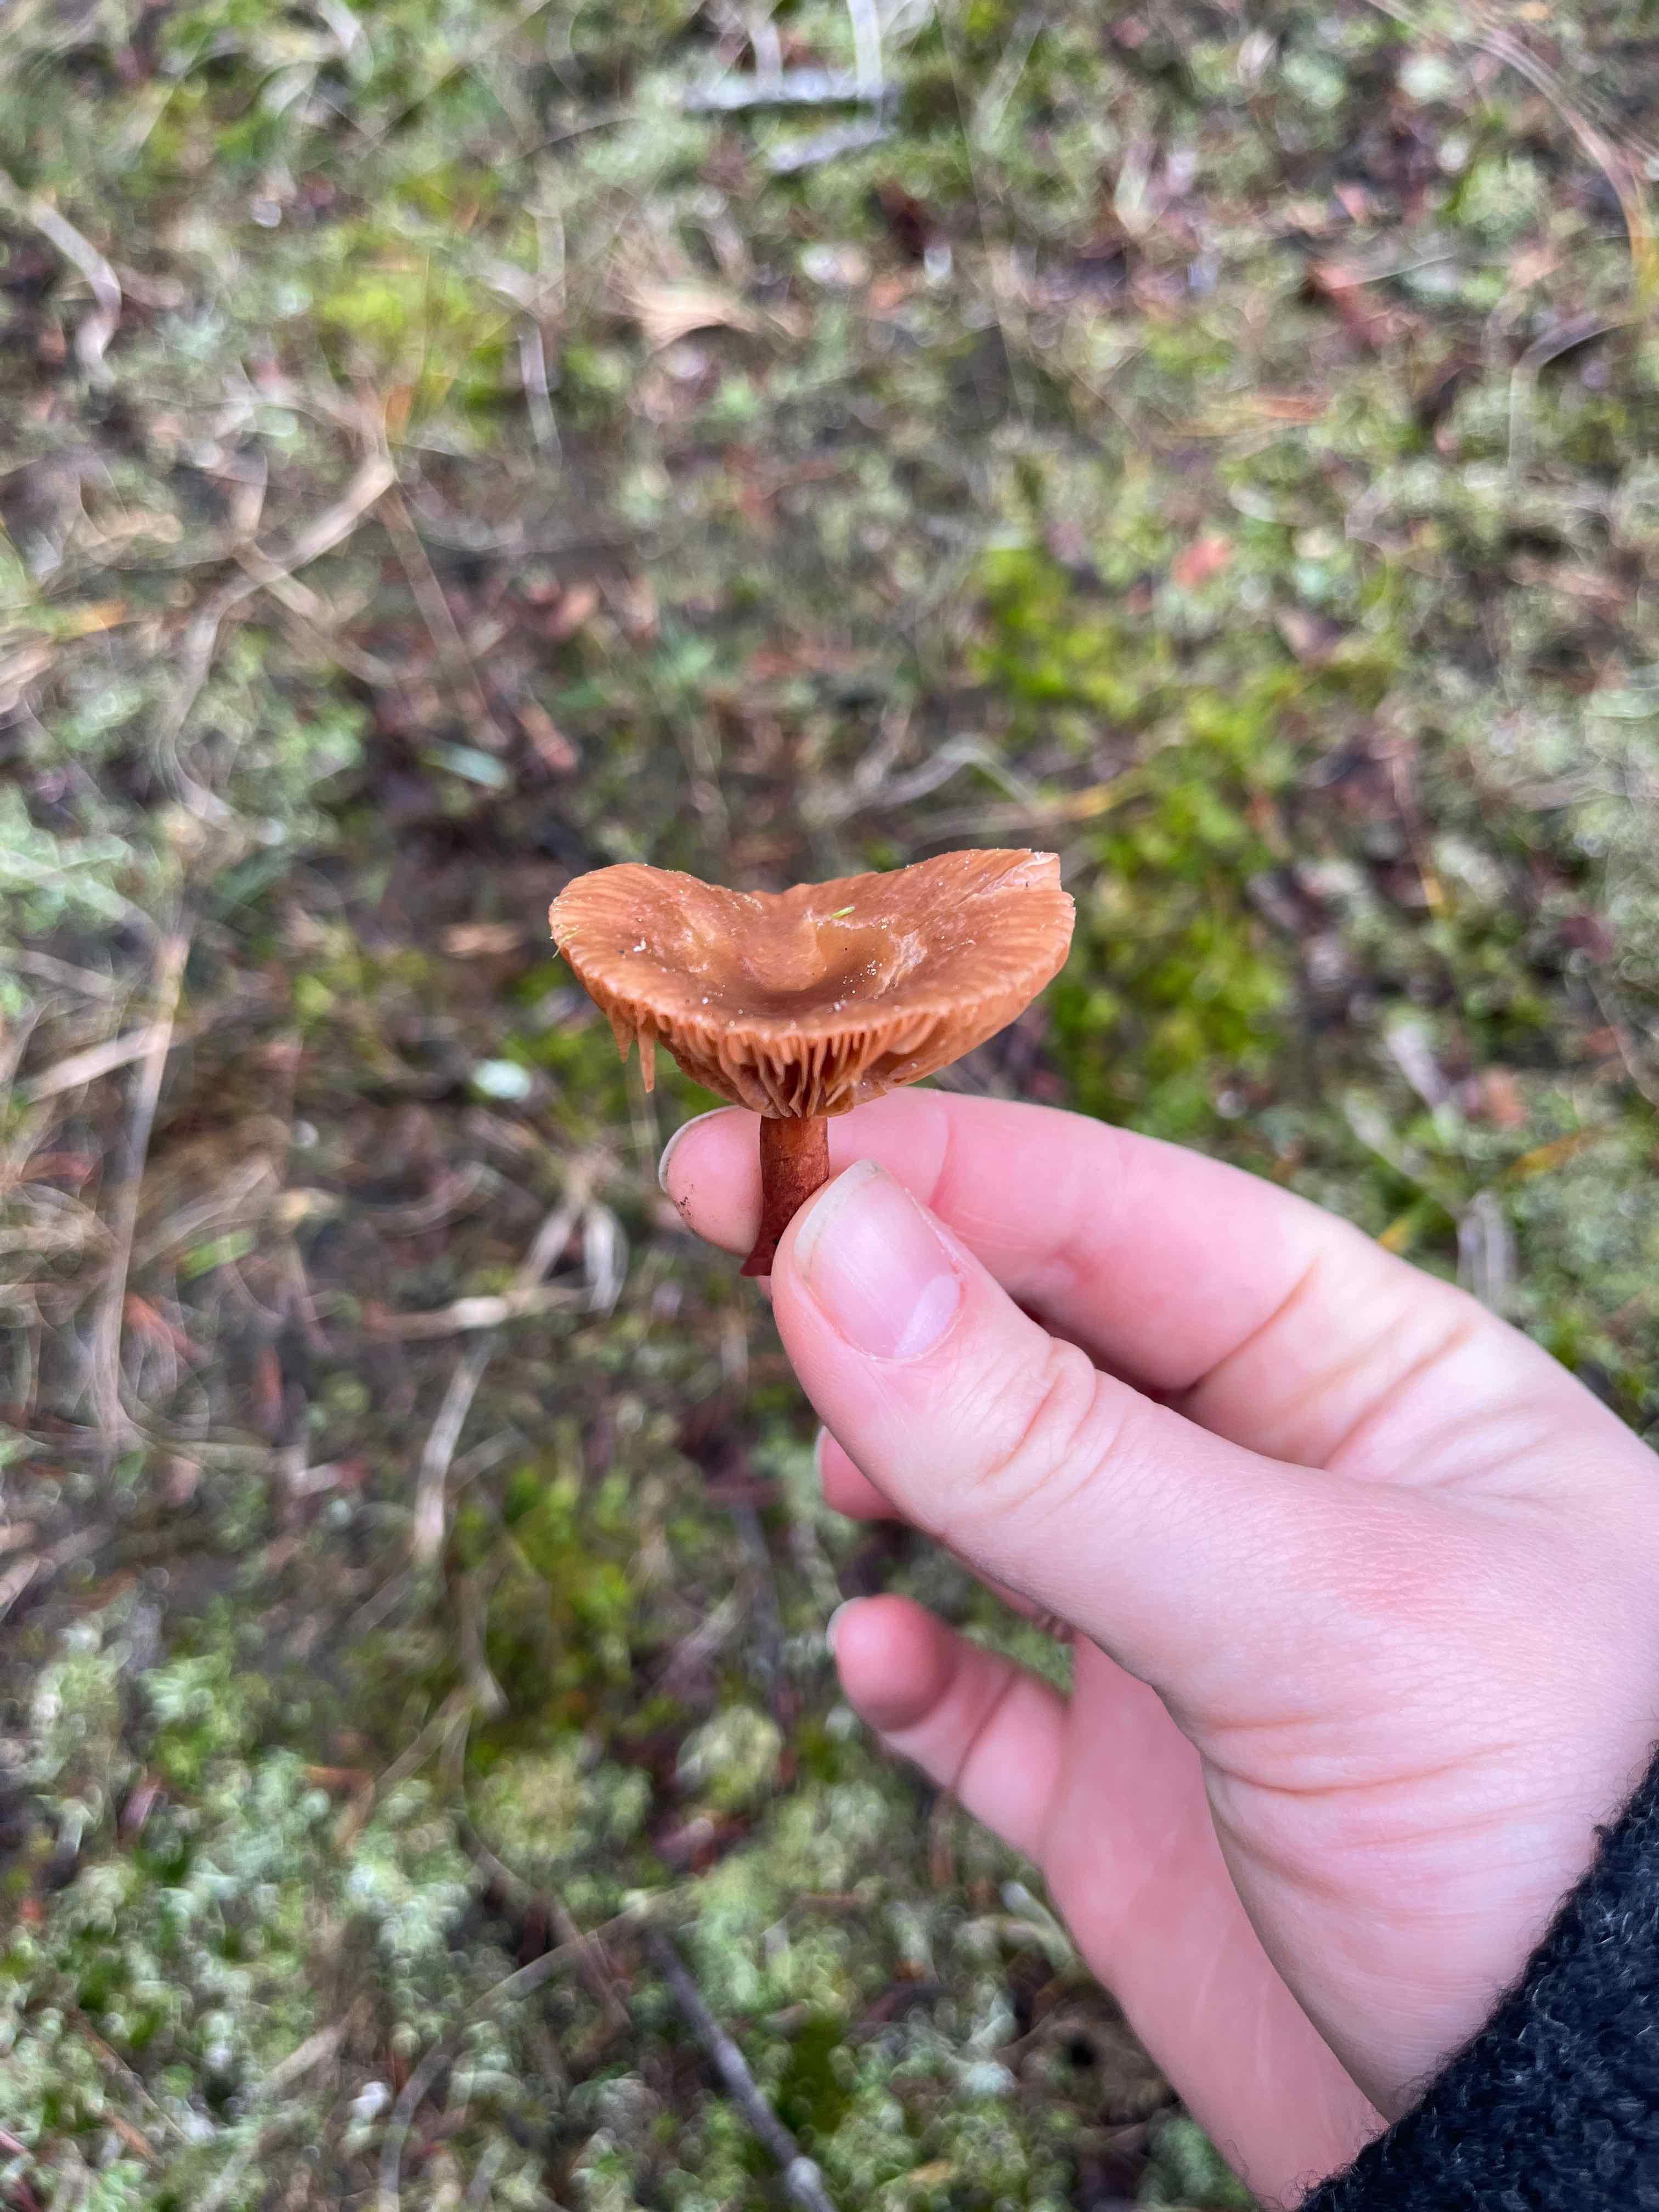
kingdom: Fungi
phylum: Basidiomycota
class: Agaricomycetes
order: Russulales
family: Russulaceae
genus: Lactarius
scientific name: Lactarius
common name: mælkehat
